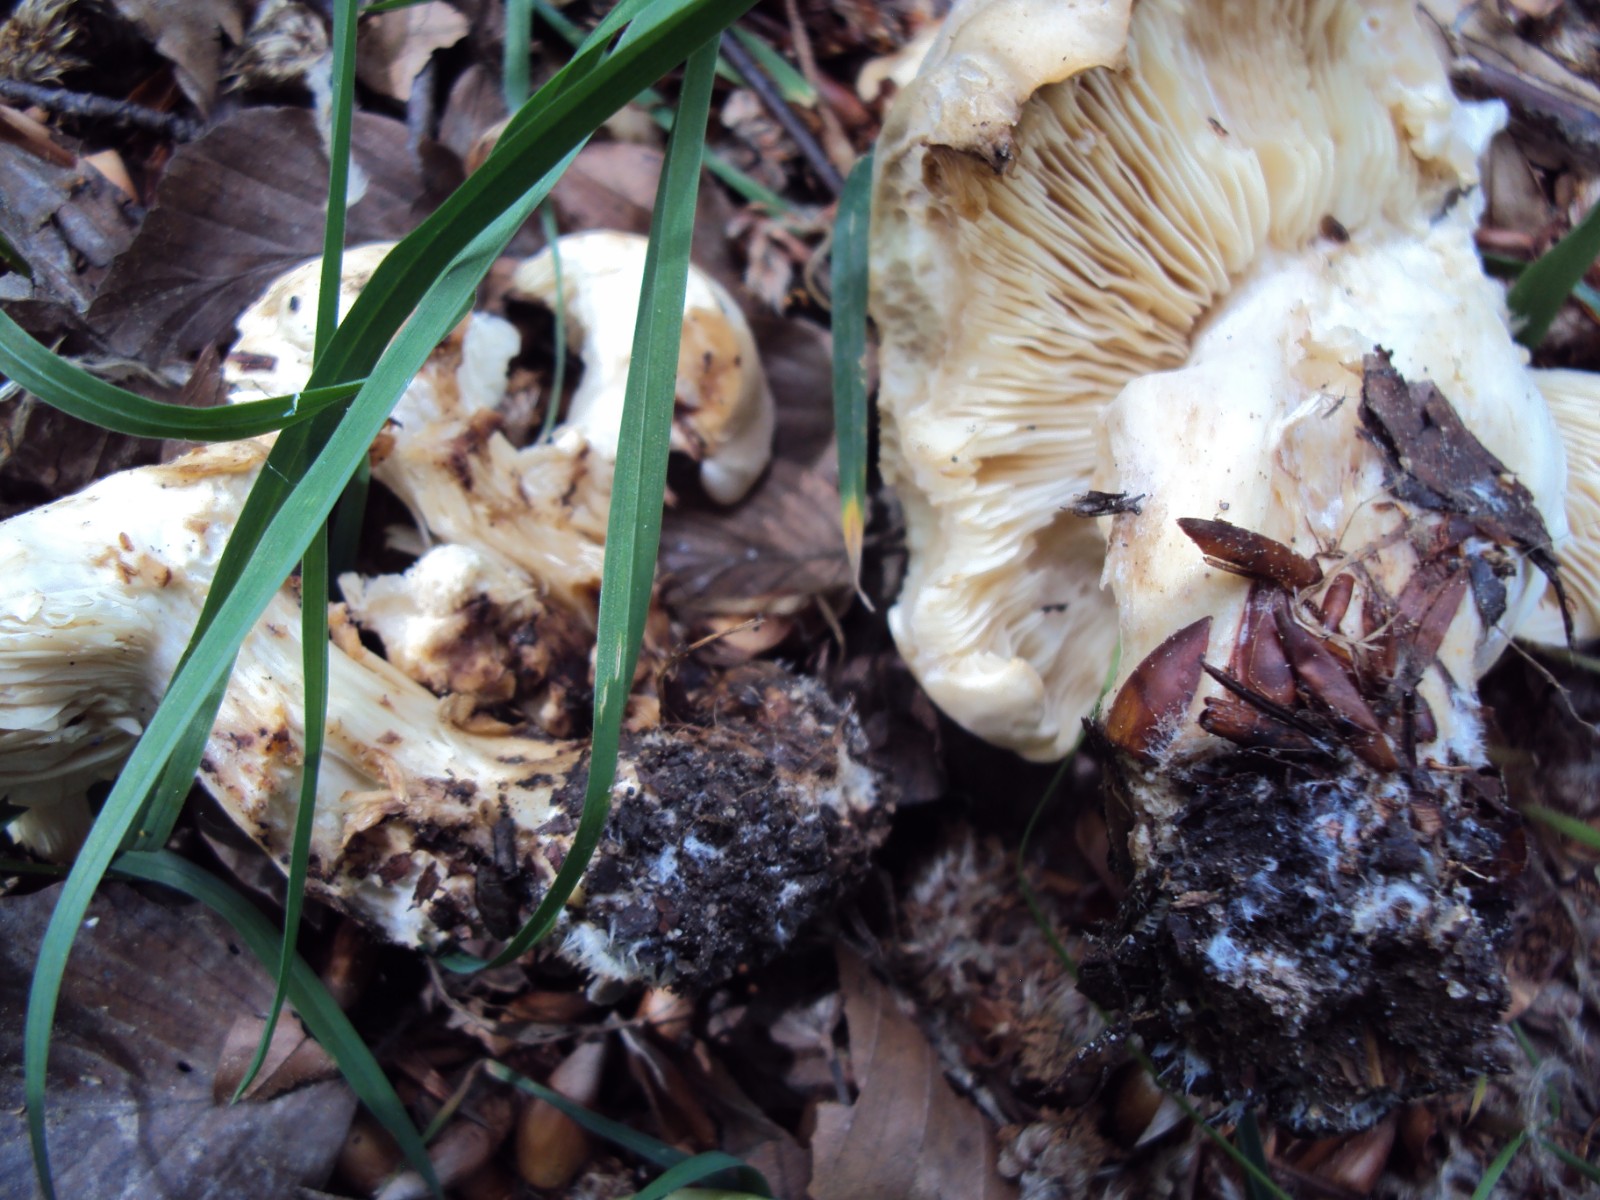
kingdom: Fungi
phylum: Basidiomycota
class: Agaricomycetes
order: Agaricales
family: Lyophyllaceae
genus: Calocybe
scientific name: Calocybe gambosa
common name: vårmusseron
